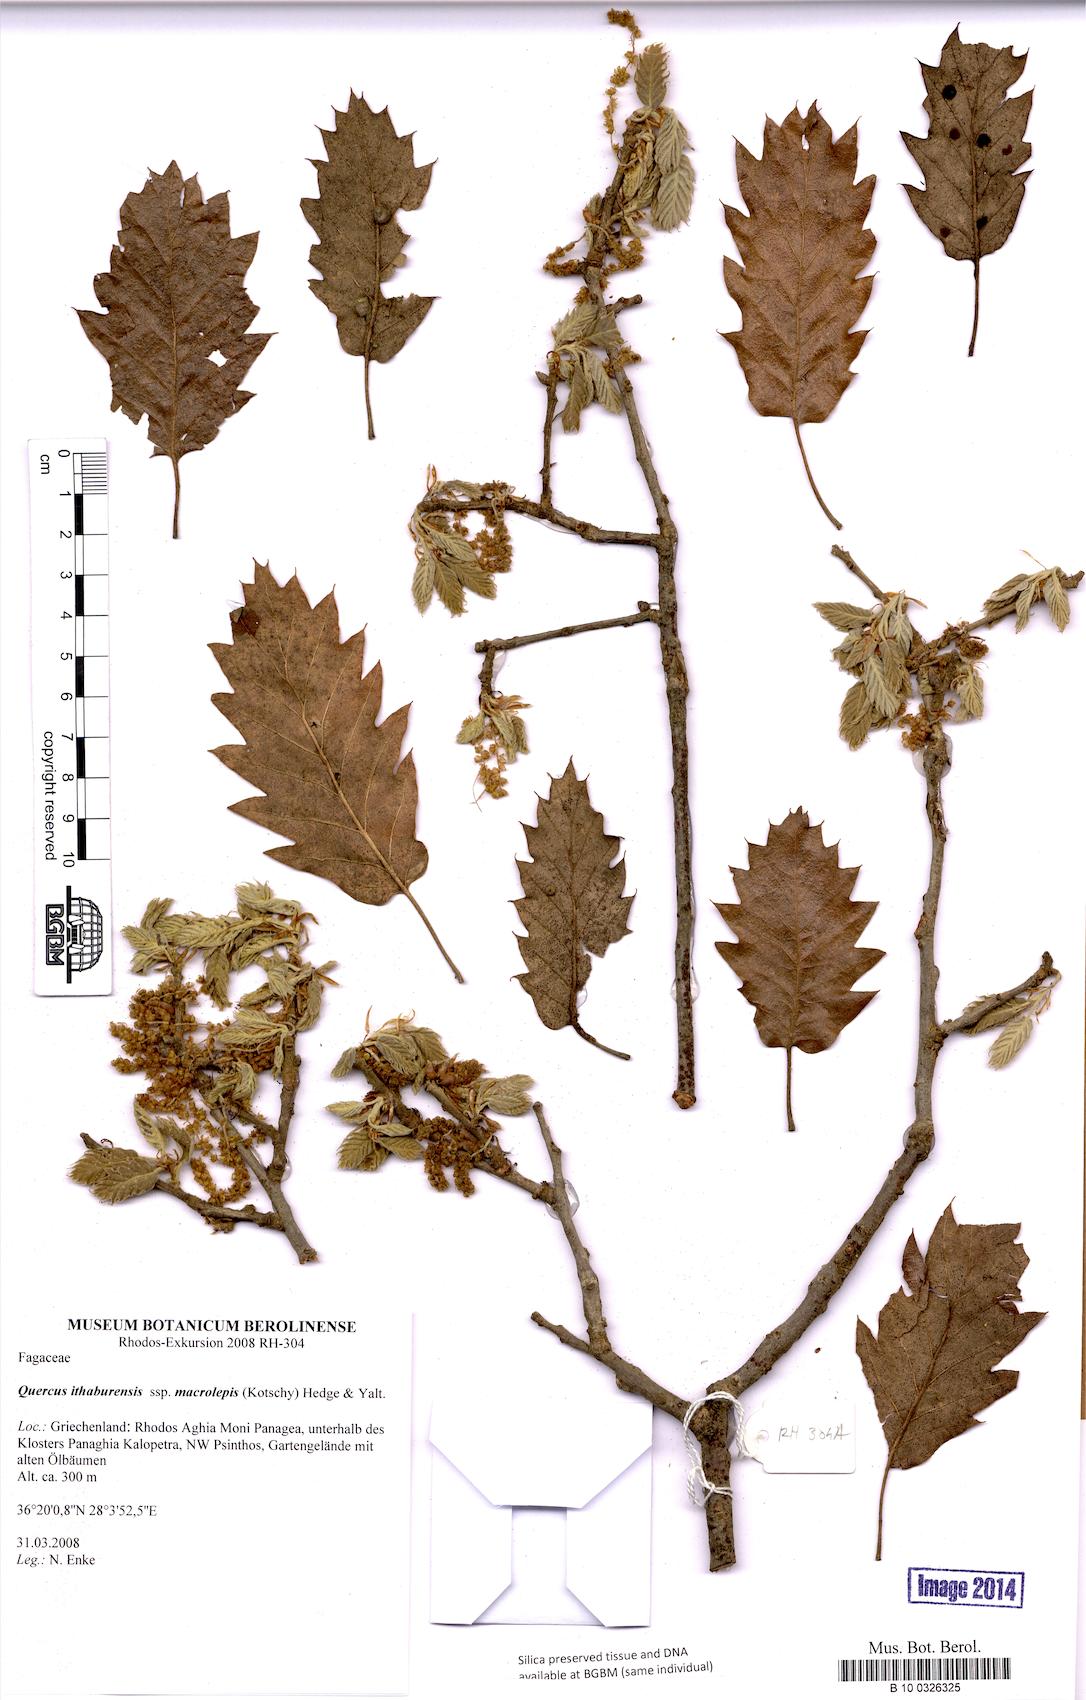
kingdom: Plantae
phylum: Tracheophyta
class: Magnoliopsida
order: Fagales
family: Fagaceae
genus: Quercus
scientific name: Quercus ithaburensis
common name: Tabor oak
